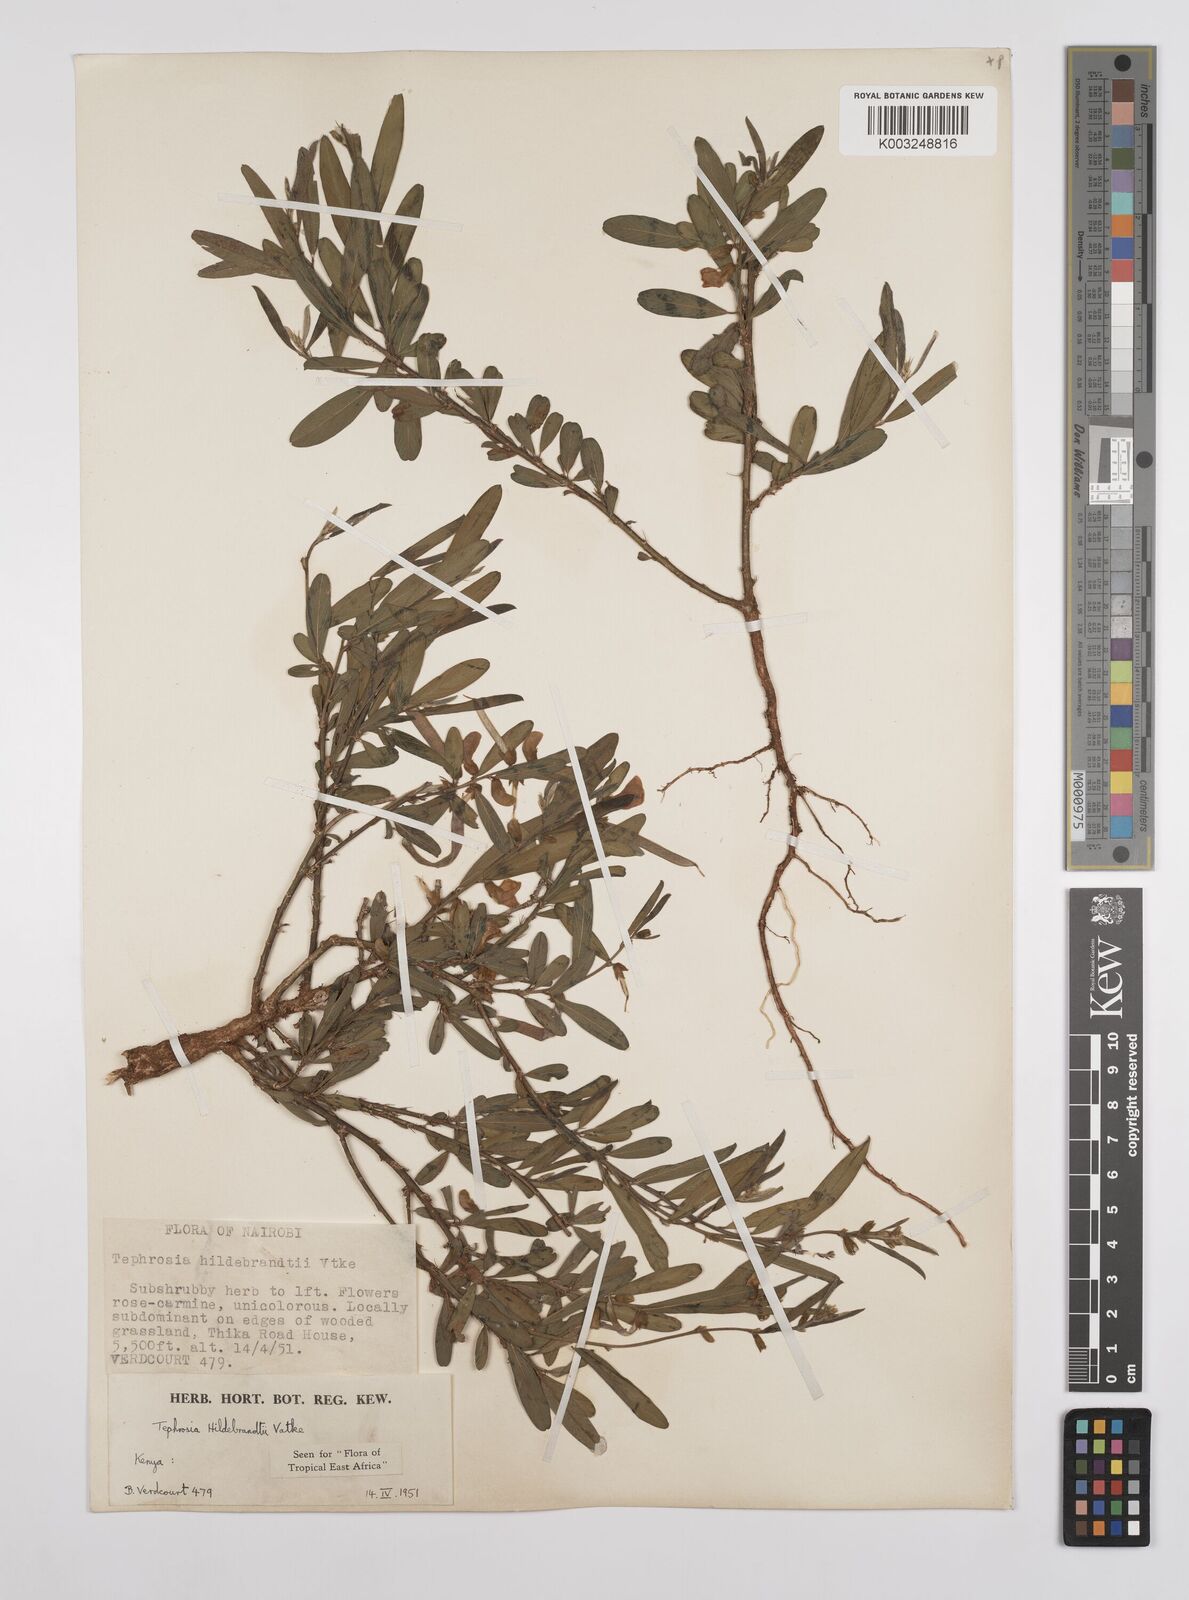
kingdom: Plantae
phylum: Tracheophyta
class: Magnoliopsida
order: Fabales
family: Fabaceae
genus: Tephrosia
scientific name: Tephrosia hildebrandtii
